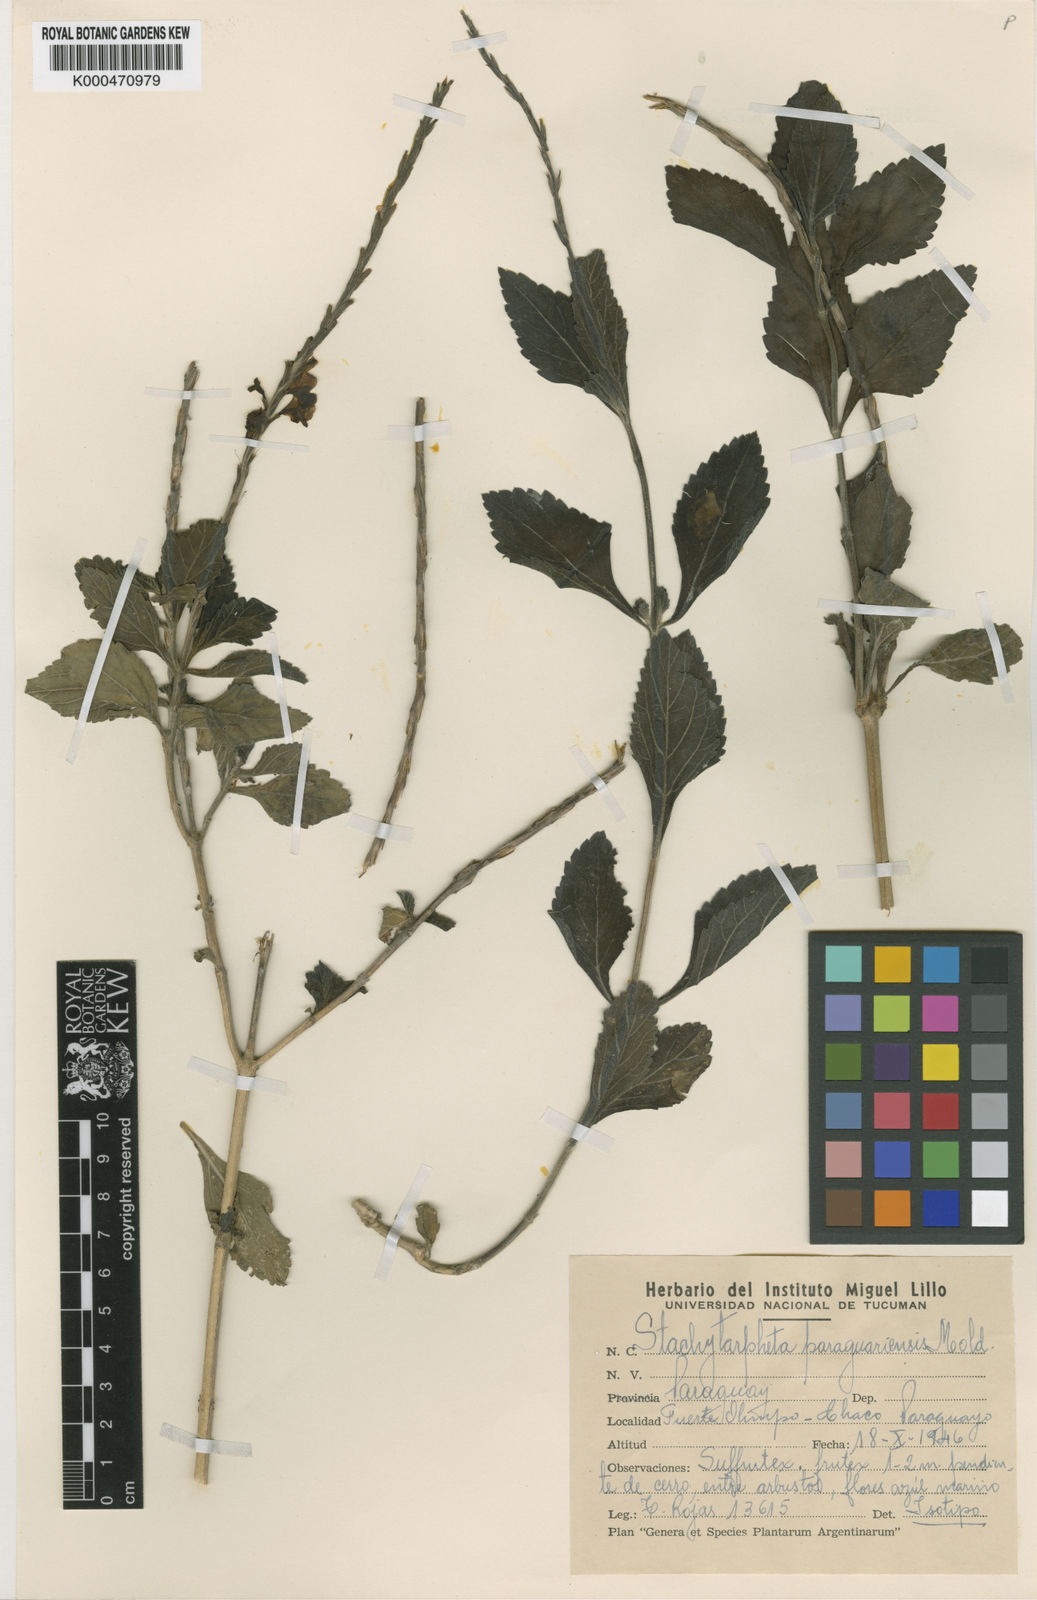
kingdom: Plantae
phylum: Tracheophyta
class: Magnoliopsida
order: Lamiales
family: Verbenaceae
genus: Stachytarpheta
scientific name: Stachytarpheta paraguariensis
